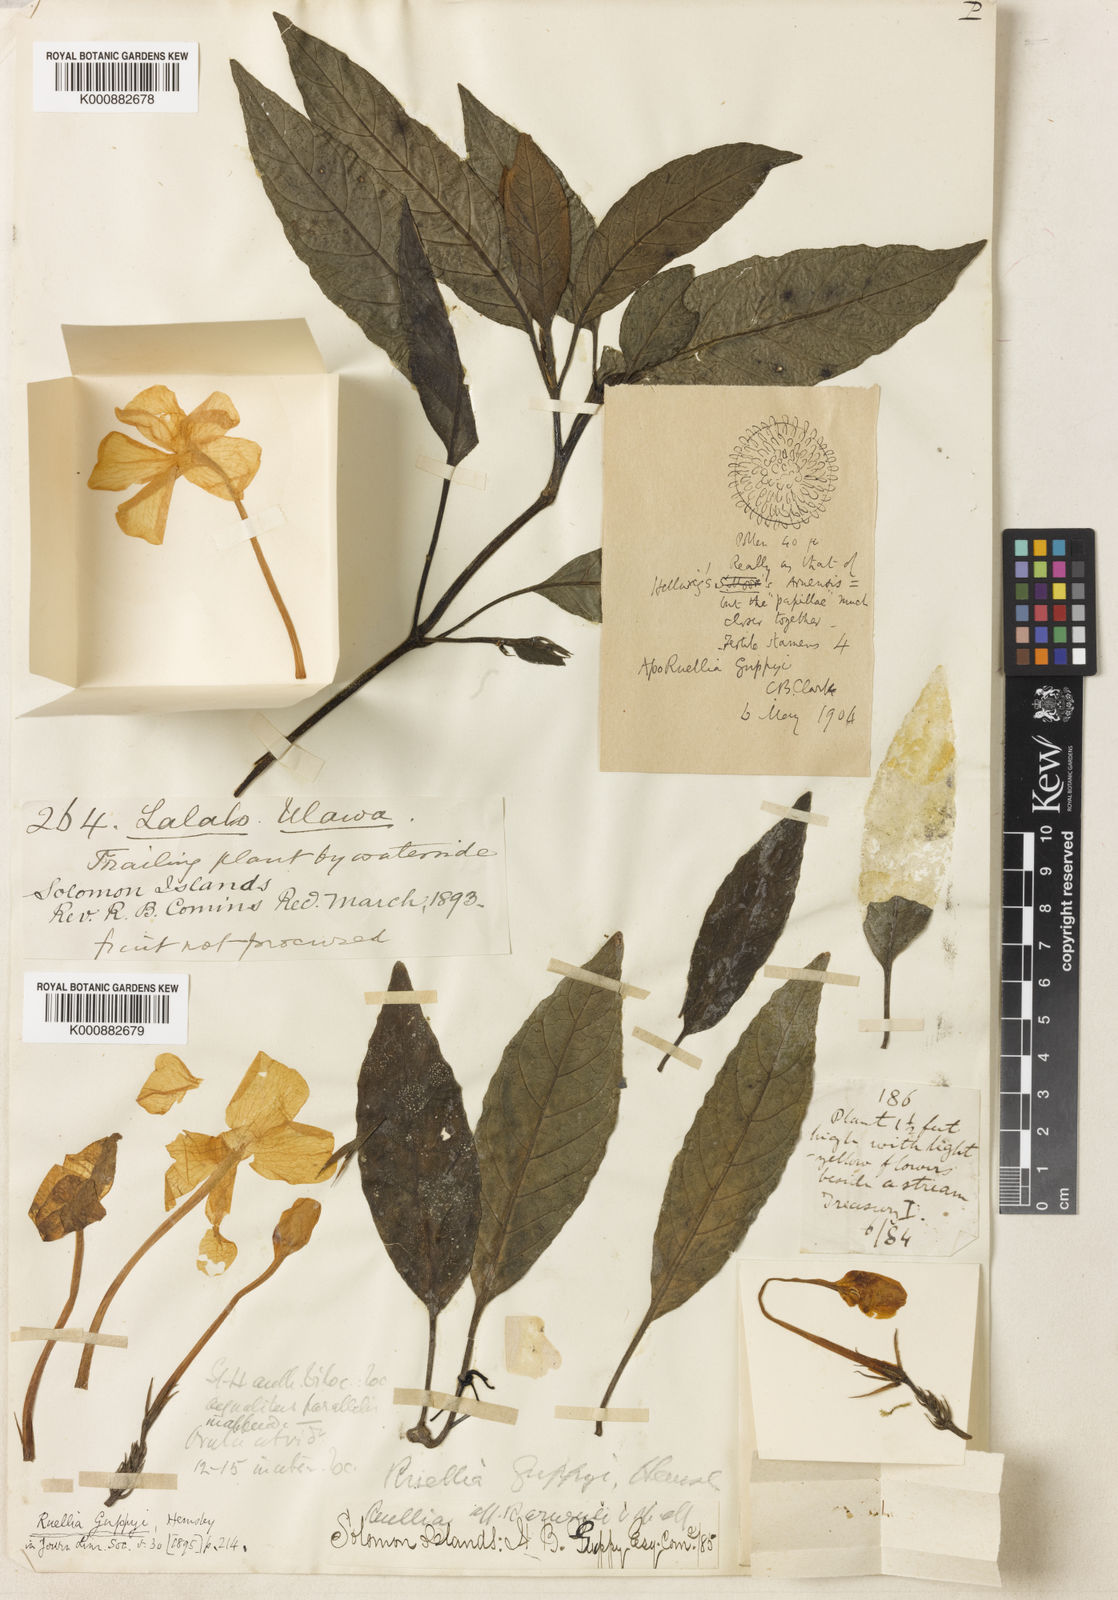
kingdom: Plantae
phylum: Tracheophyta
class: Magnoliopsida
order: Lamiales
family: Acanthaceae
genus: Leptosiphonium
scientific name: Leptosiphonium guppyi
